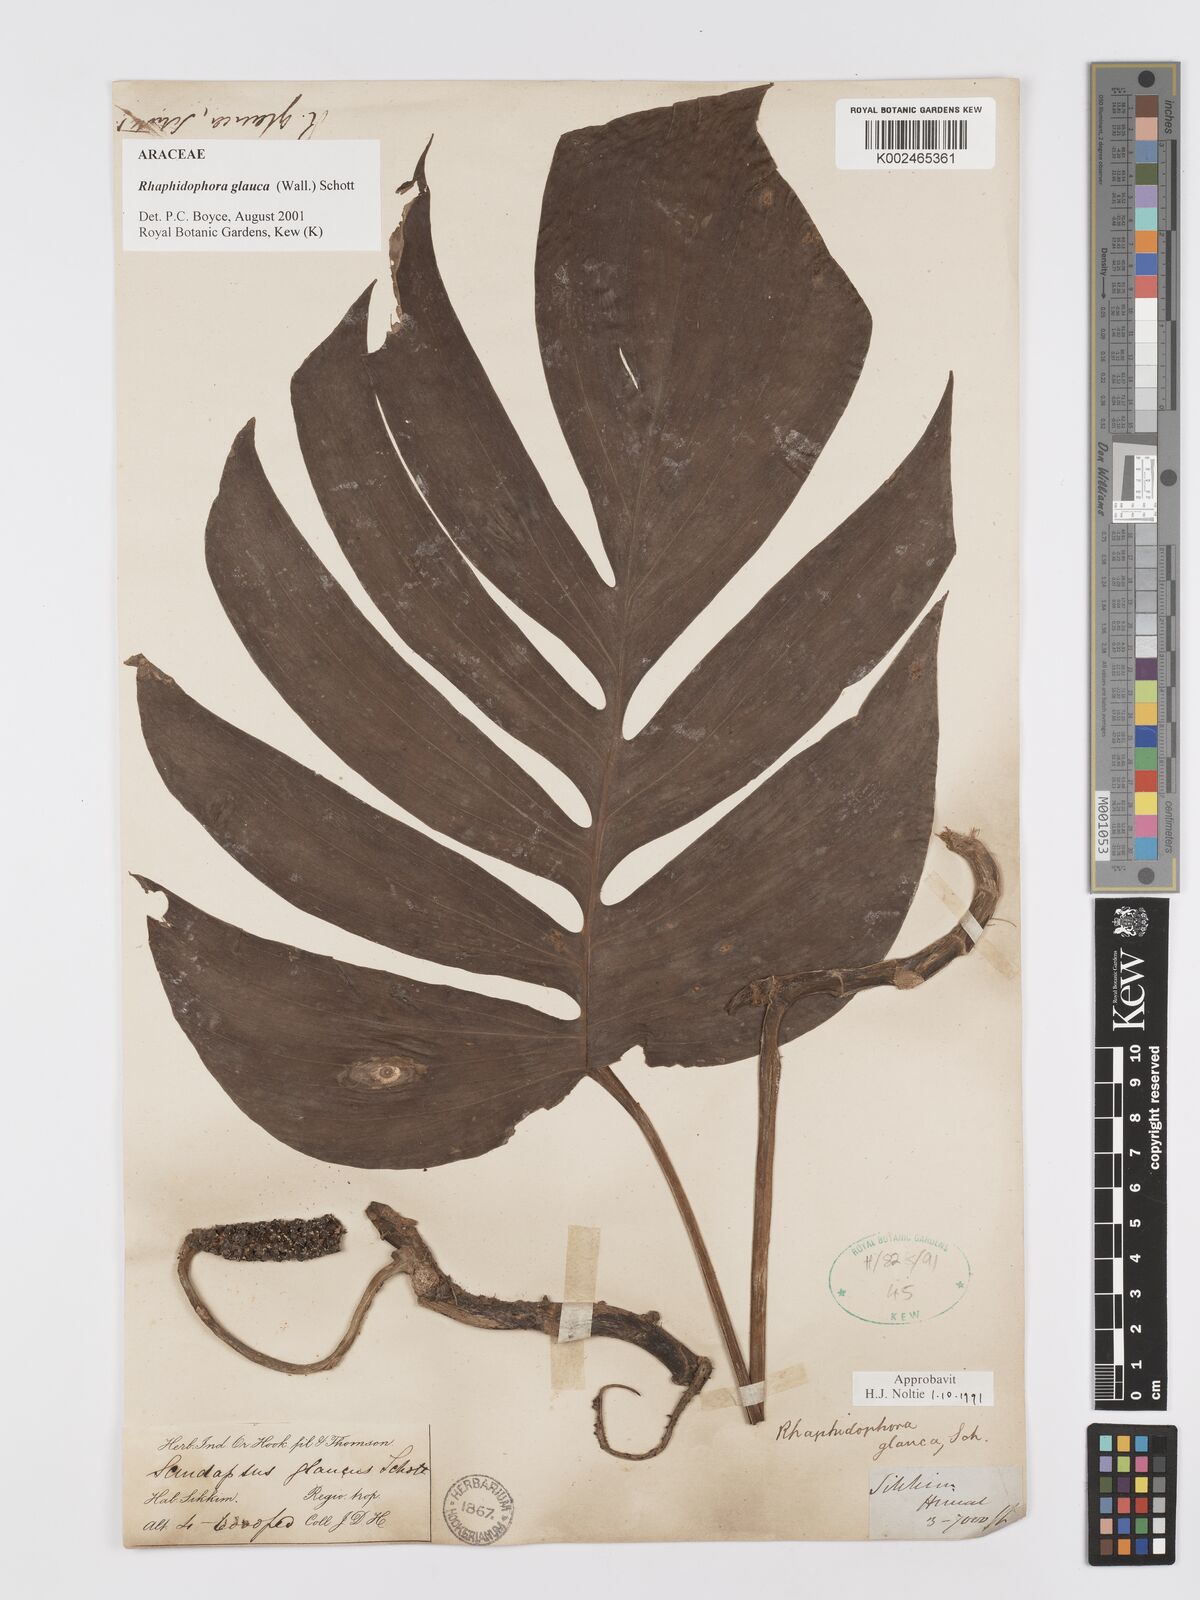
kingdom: Plantae
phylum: Tracheophyta
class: Liliopsida
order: Alismatales
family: Araceae
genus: Rhaphidophora
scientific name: Rhaphidophora glauca
